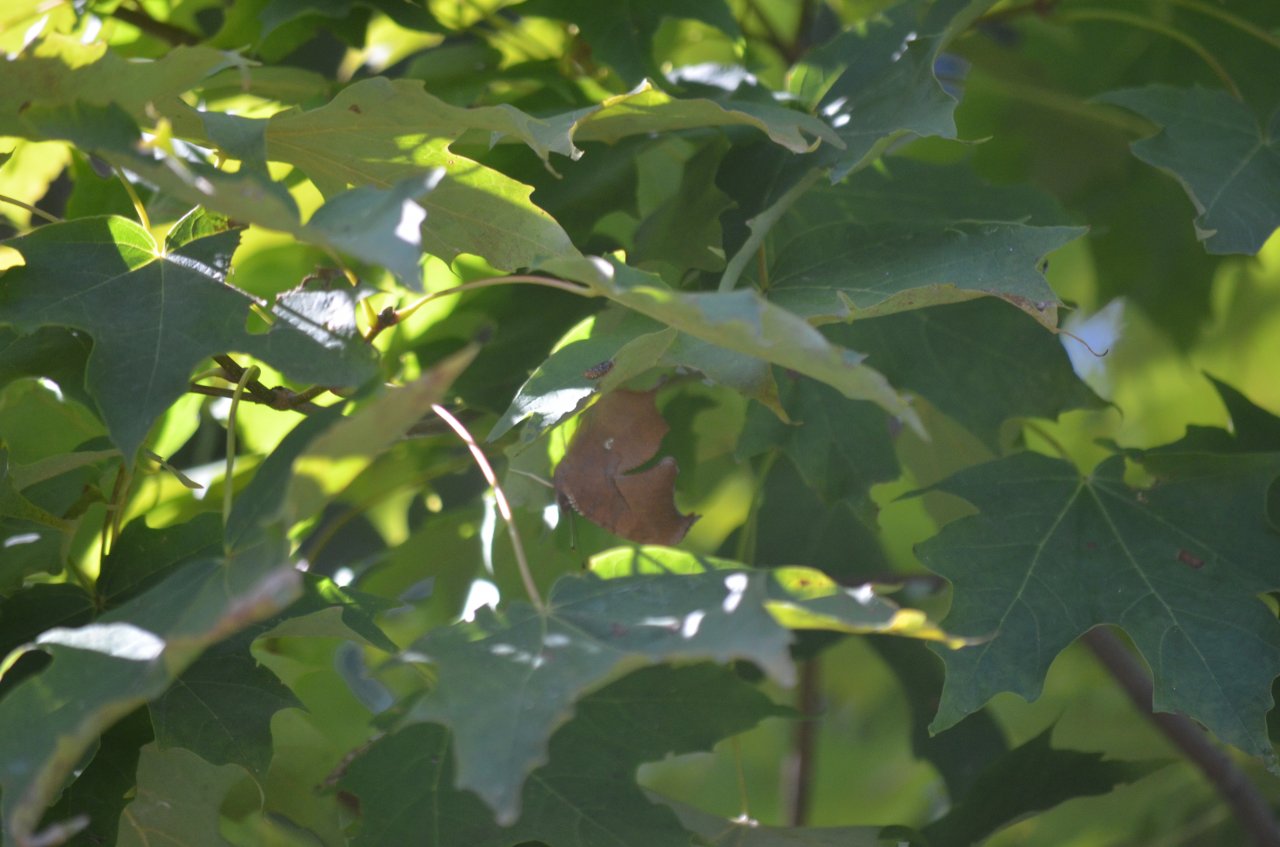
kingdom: Animalia
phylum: Arthropoda
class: Insecta
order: Lepidoptera
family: Nymphalidae
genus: Polygonia
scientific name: Polygonia interrogationis
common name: Question Mark
